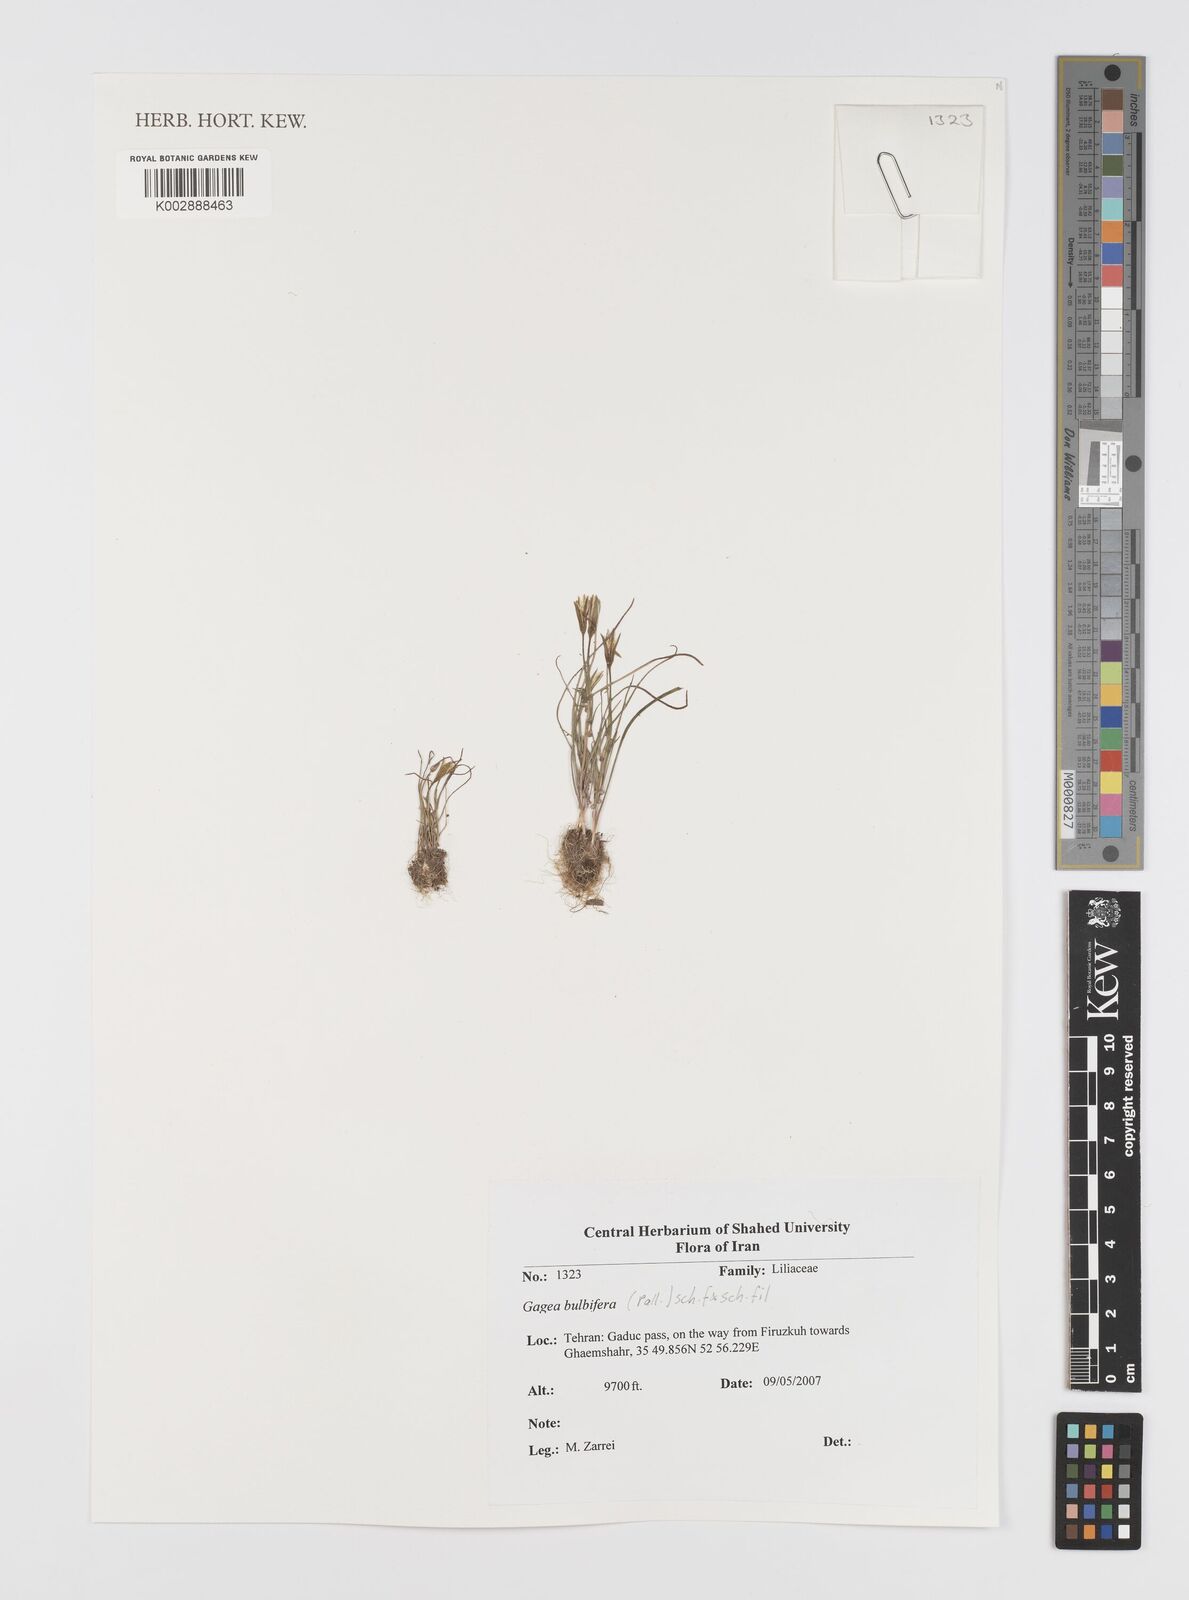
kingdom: Plantae
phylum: Tracheophyta
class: Liliopsida
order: Liliales
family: Liliaceae
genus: Gagea
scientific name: Gagea bulbifera
